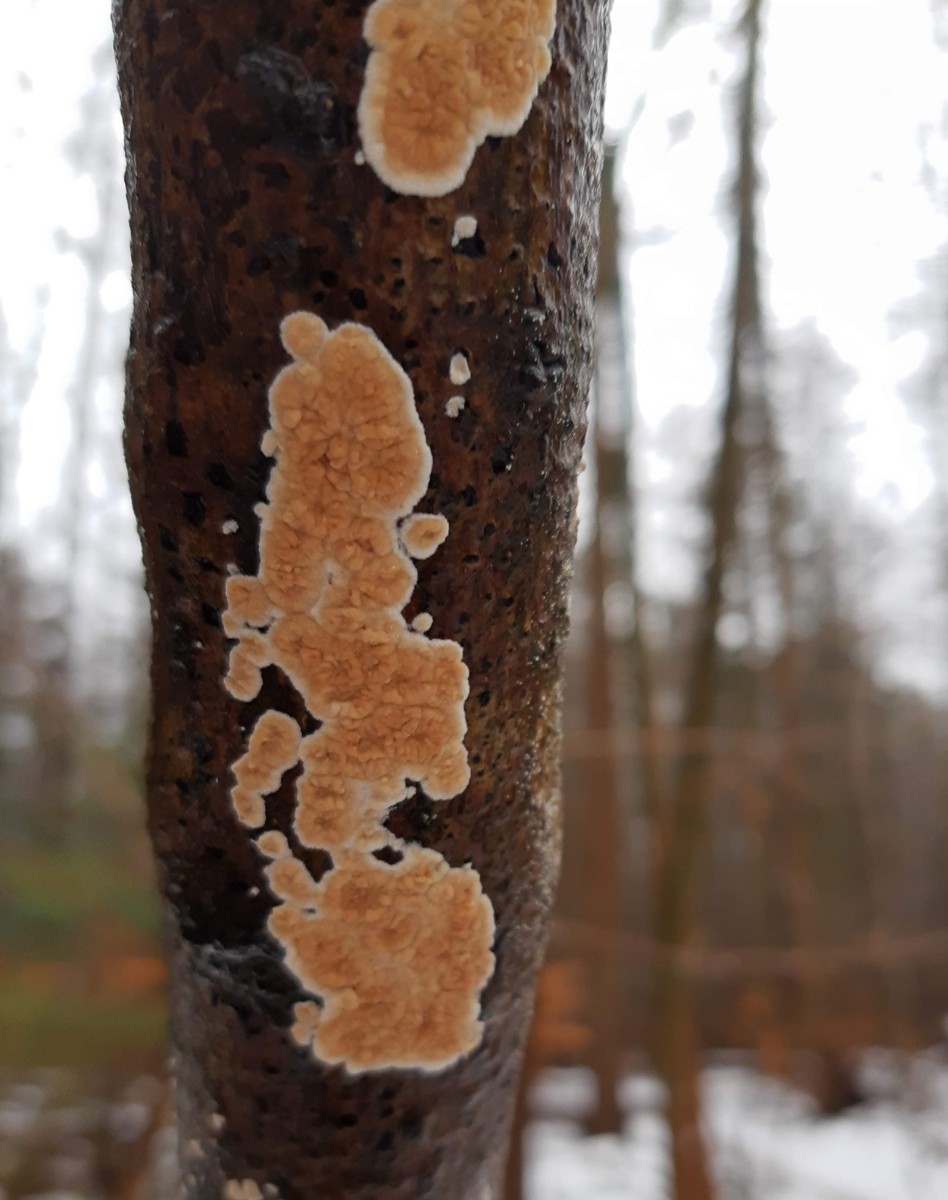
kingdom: Fungi
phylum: Basidiomycota
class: Agaricomycetes
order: Agaricales
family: Physalacriaceae
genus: Cylindrobasidium
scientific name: Cylindrobasidium evolvens
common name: sprækkehinde
